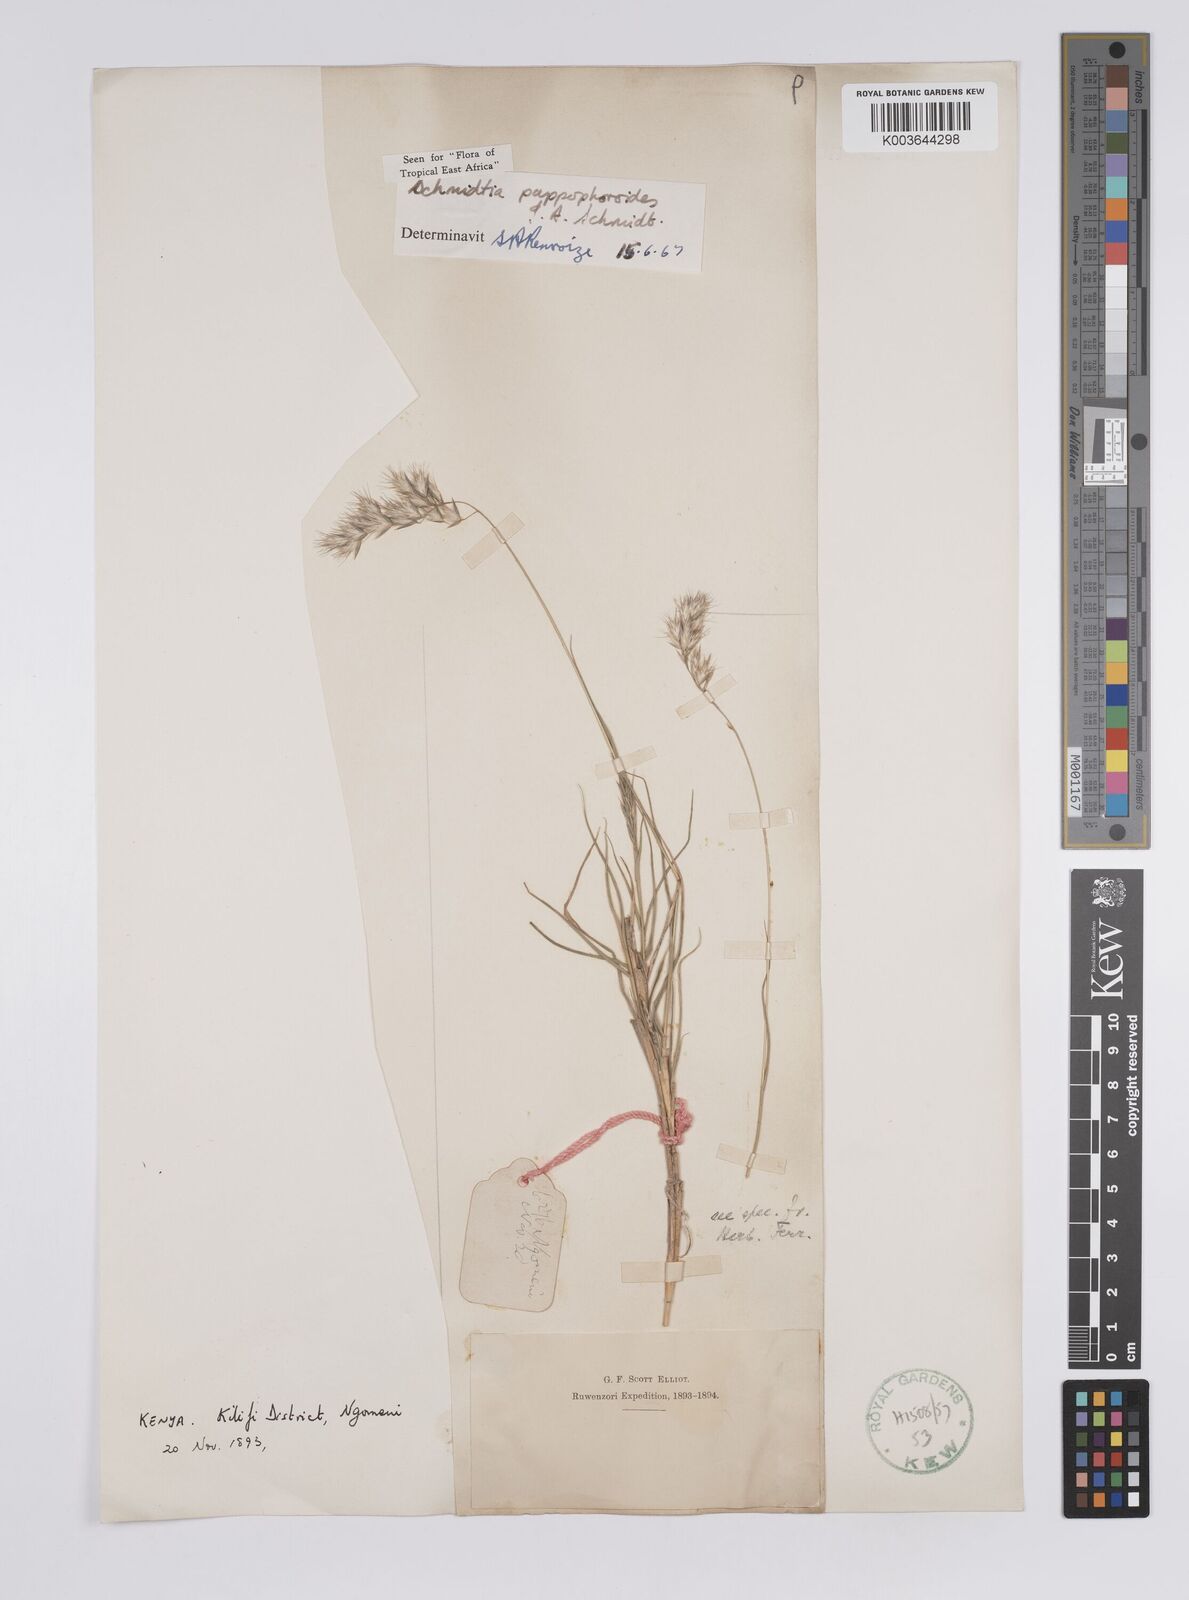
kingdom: Plantae
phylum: Tracheophyta
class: Liliopsida
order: Poales
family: Poaceae
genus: Schmidtia
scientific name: Schmidtia pappophoroides
